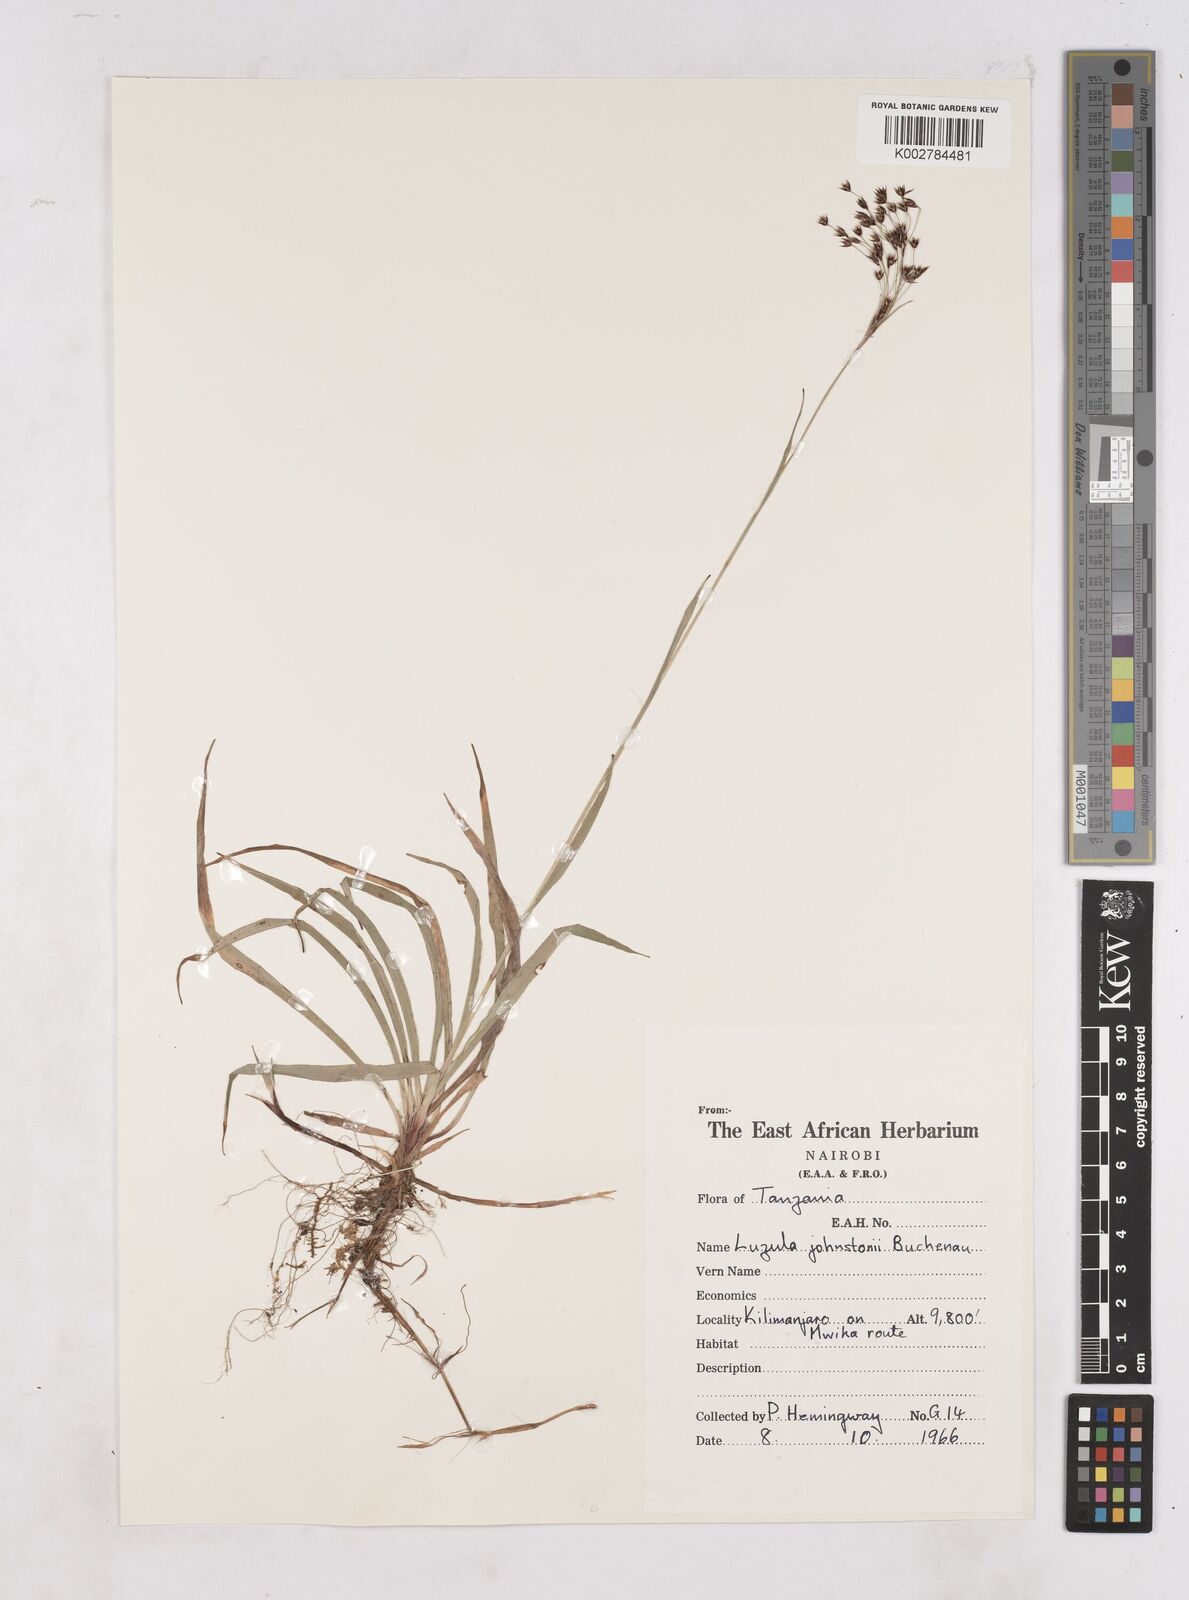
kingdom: Plantae
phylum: Tracheophyta
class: Liliopsida
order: Poales
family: Juncaceae
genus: Luzula
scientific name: Luzula johnstonii
